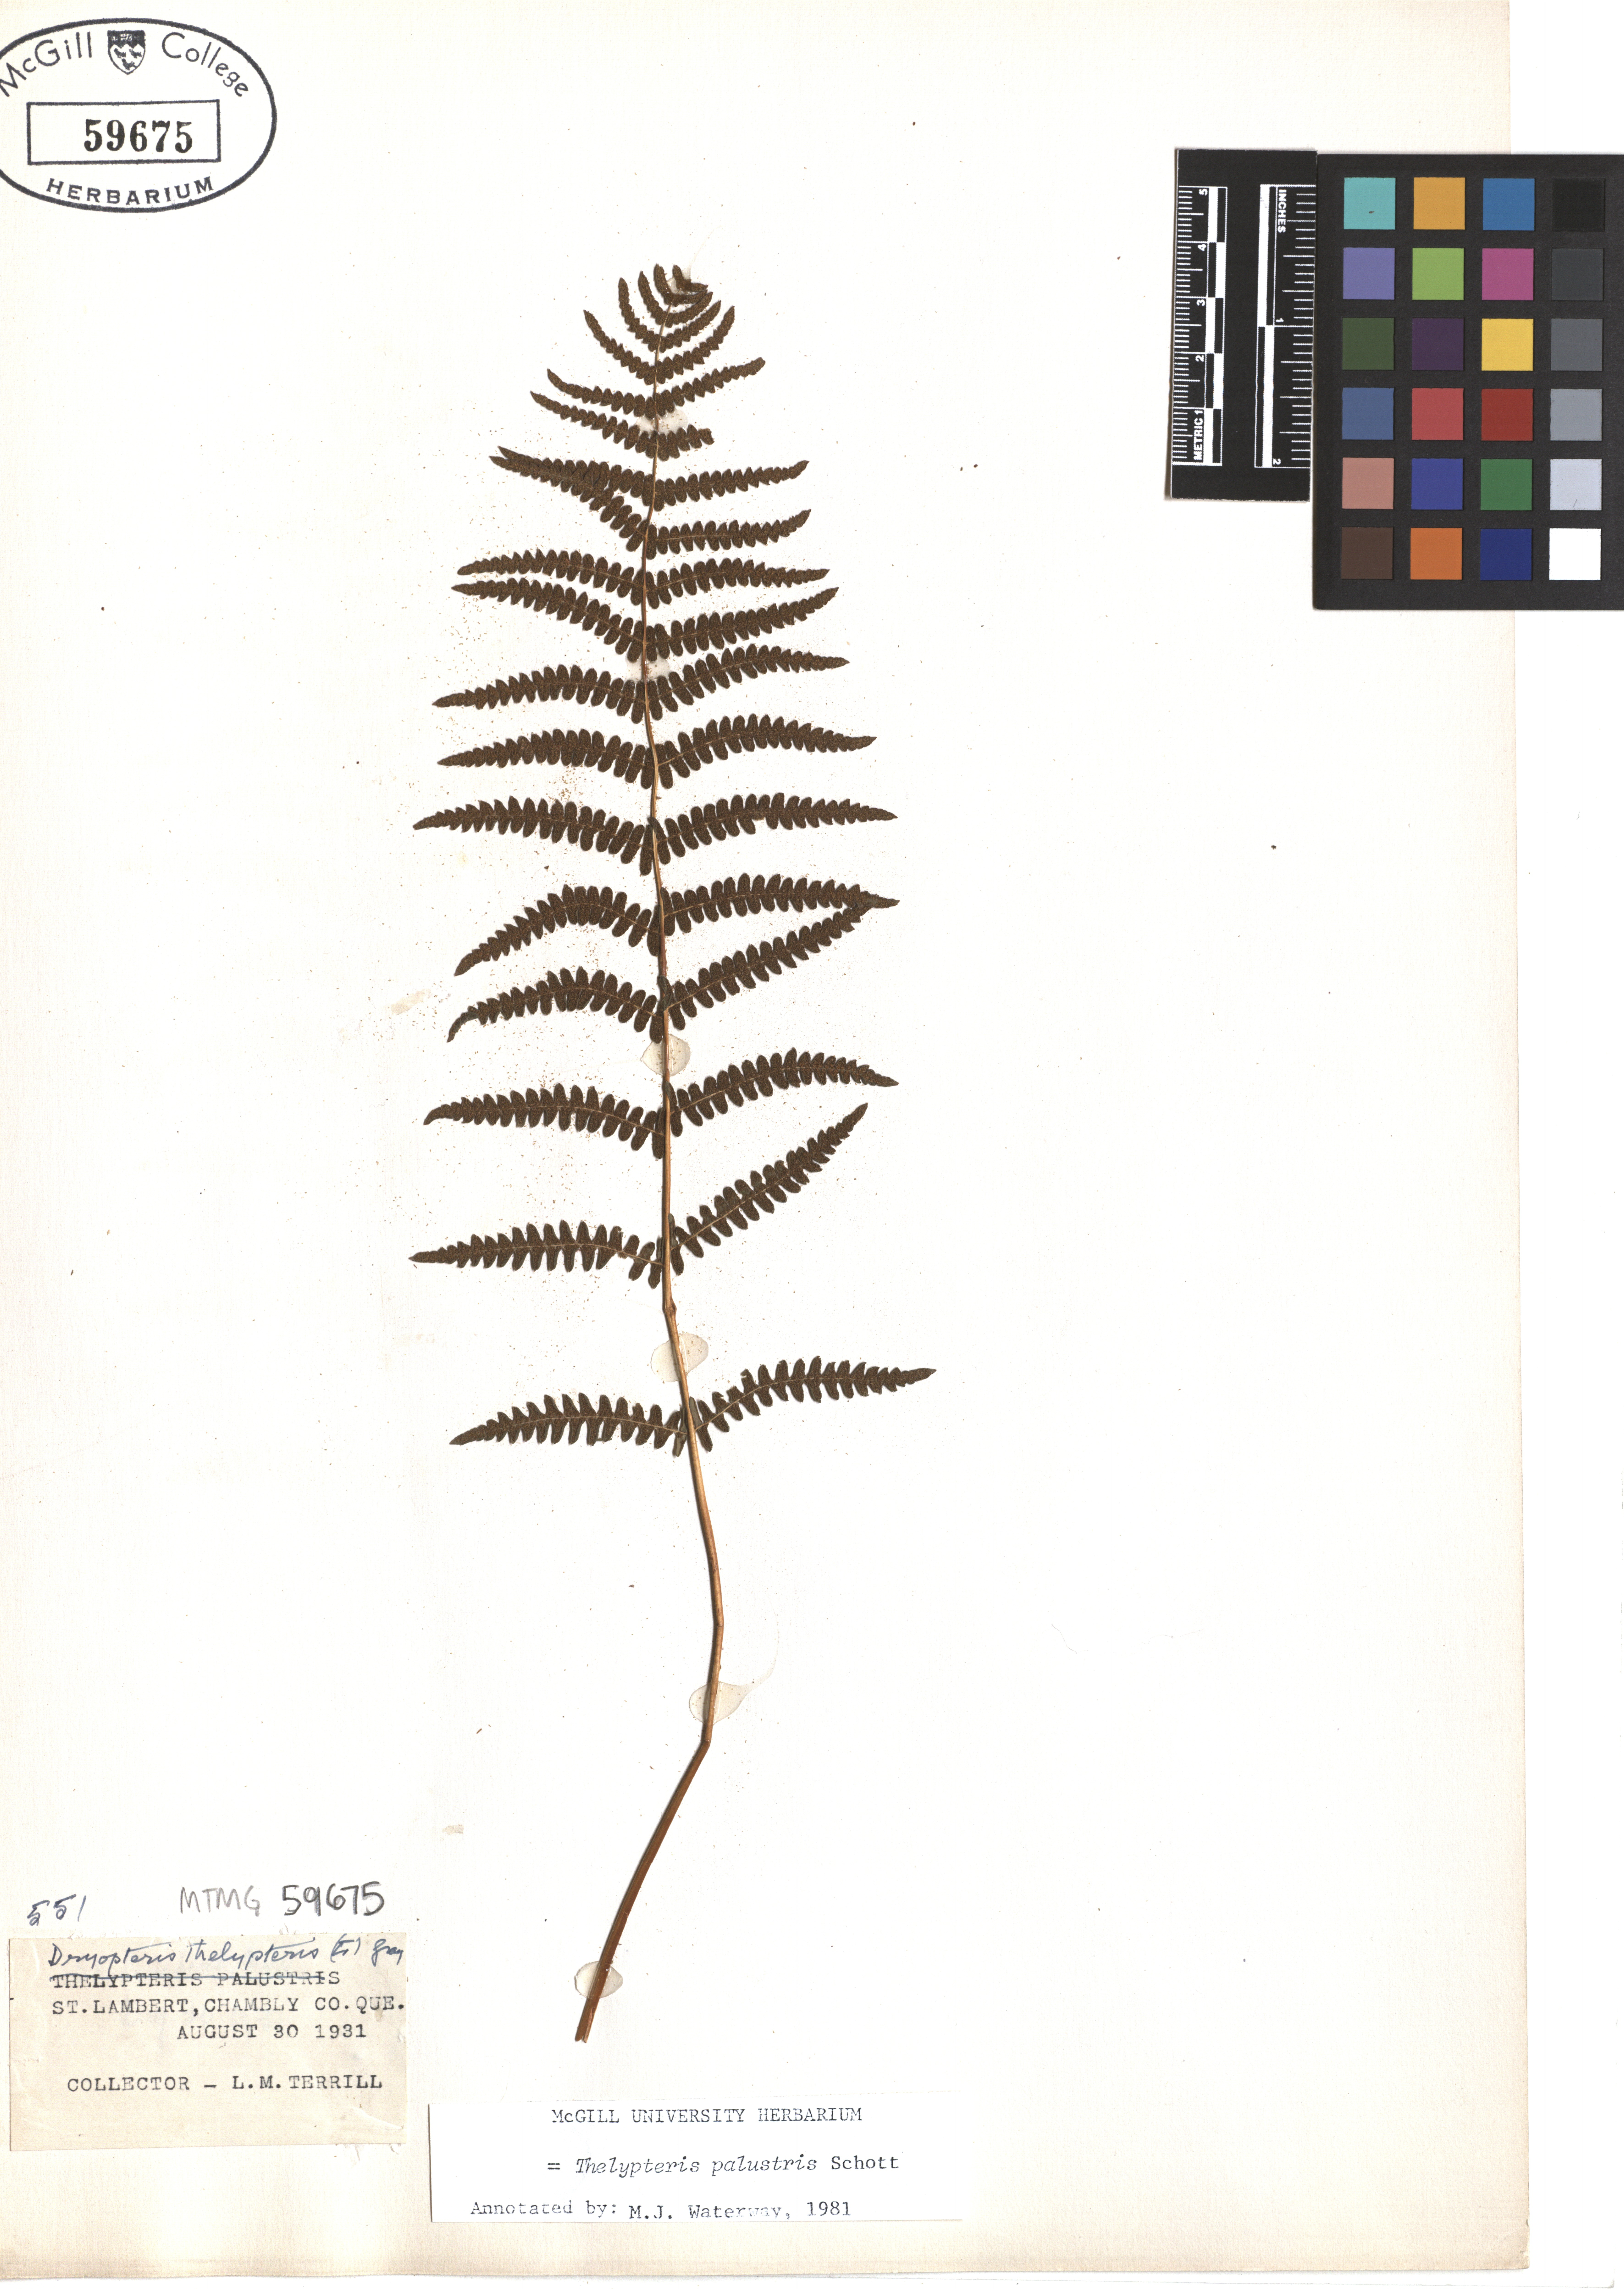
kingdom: Plantae
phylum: Tracheophyta
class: Polypodiopsida
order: Polypodiales
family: Thelypteridaceae
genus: Thelypteris
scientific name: Thelypteris palustris
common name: Marsh fern
